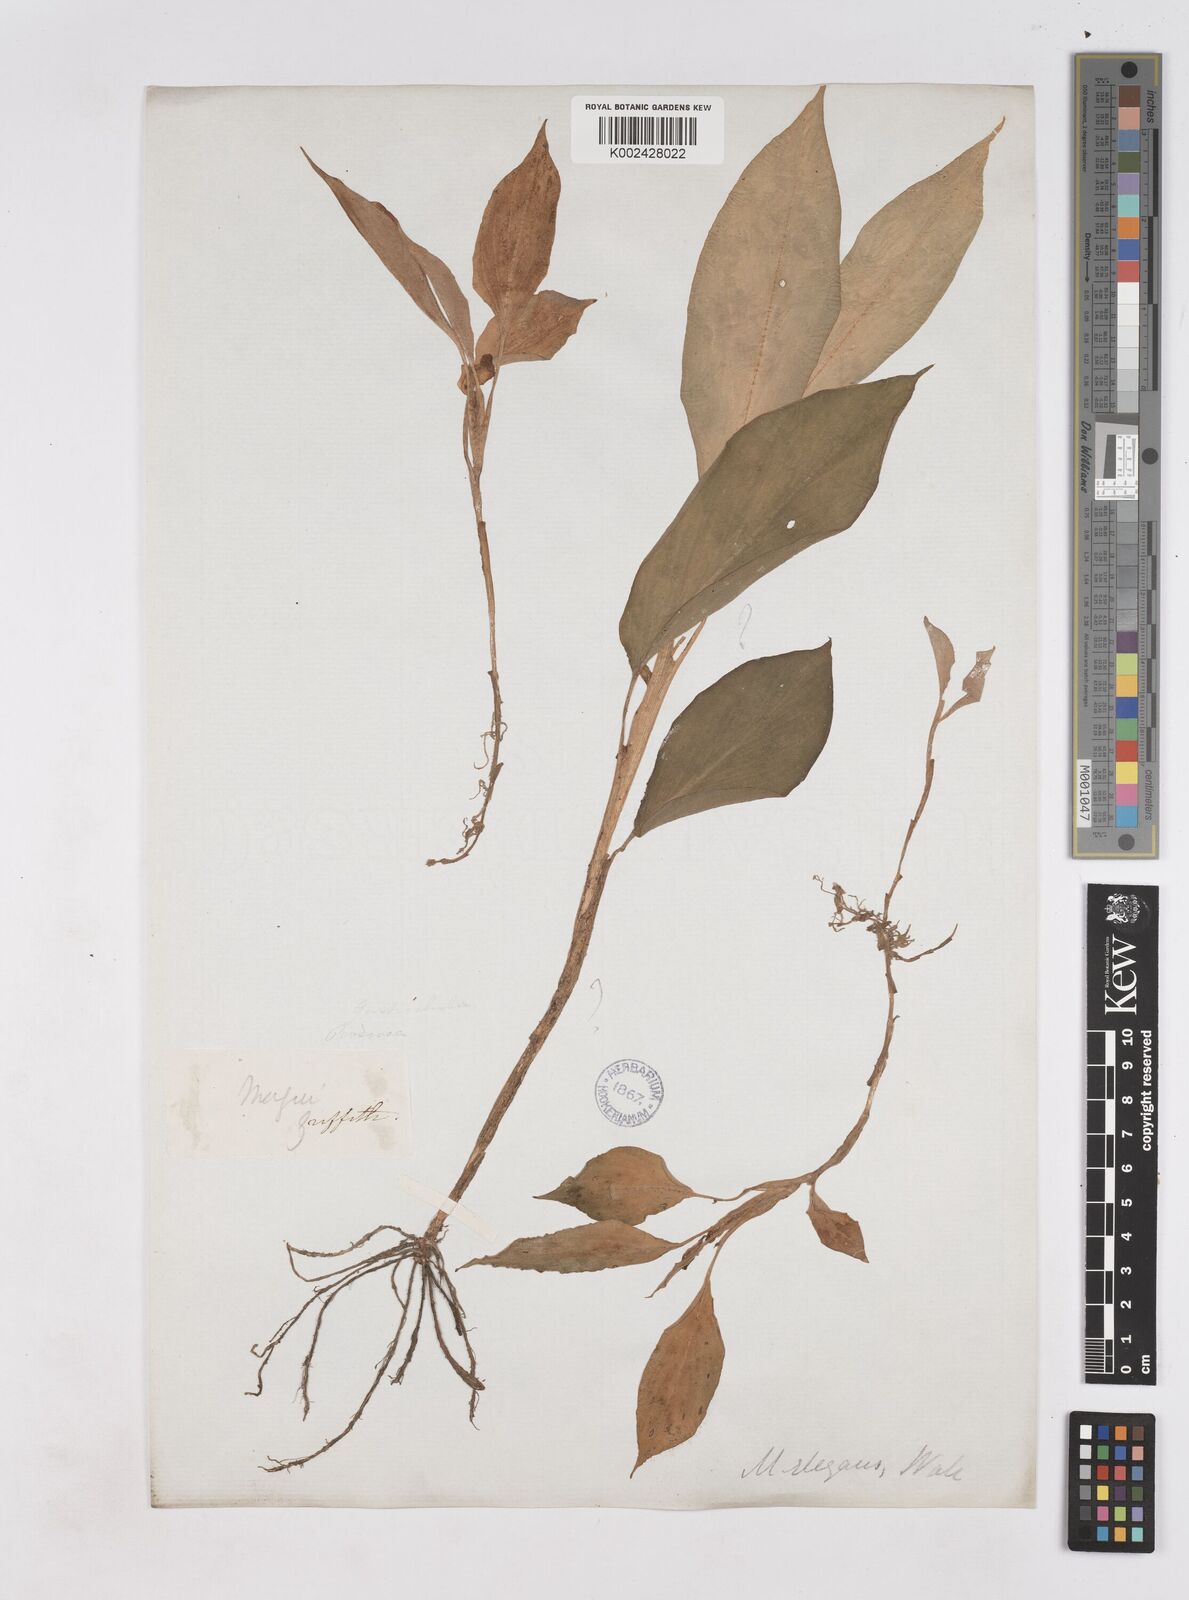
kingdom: Plantae
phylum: Tracheophyta
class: Liliopsida
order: Zingiberales
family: Zingiberaceae
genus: Kaempferia
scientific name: Kaempferia elegans
